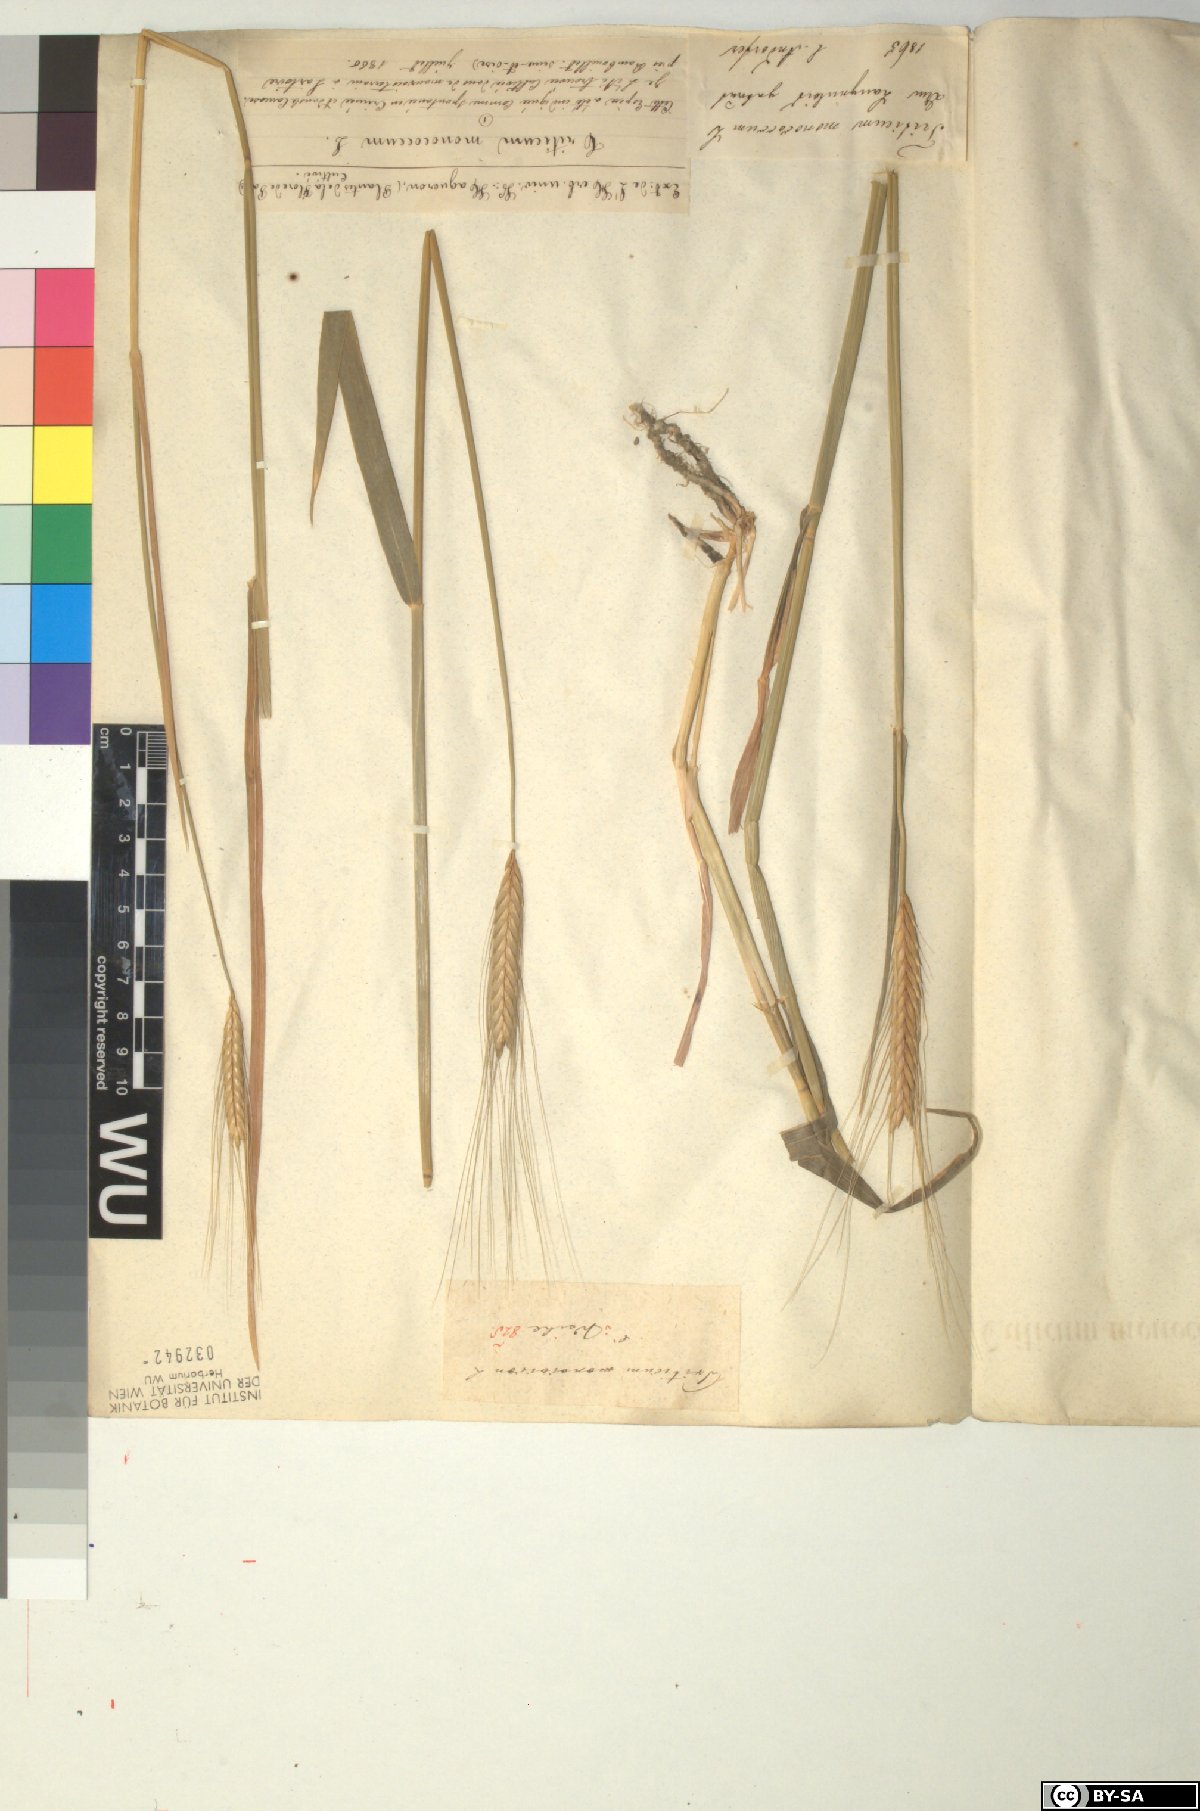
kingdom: Plantae
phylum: Tracheophyta
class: Liliopsida
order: Poales
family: Poaceae
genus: Triticum
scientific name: Triticum monococcum
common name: Einkorn
